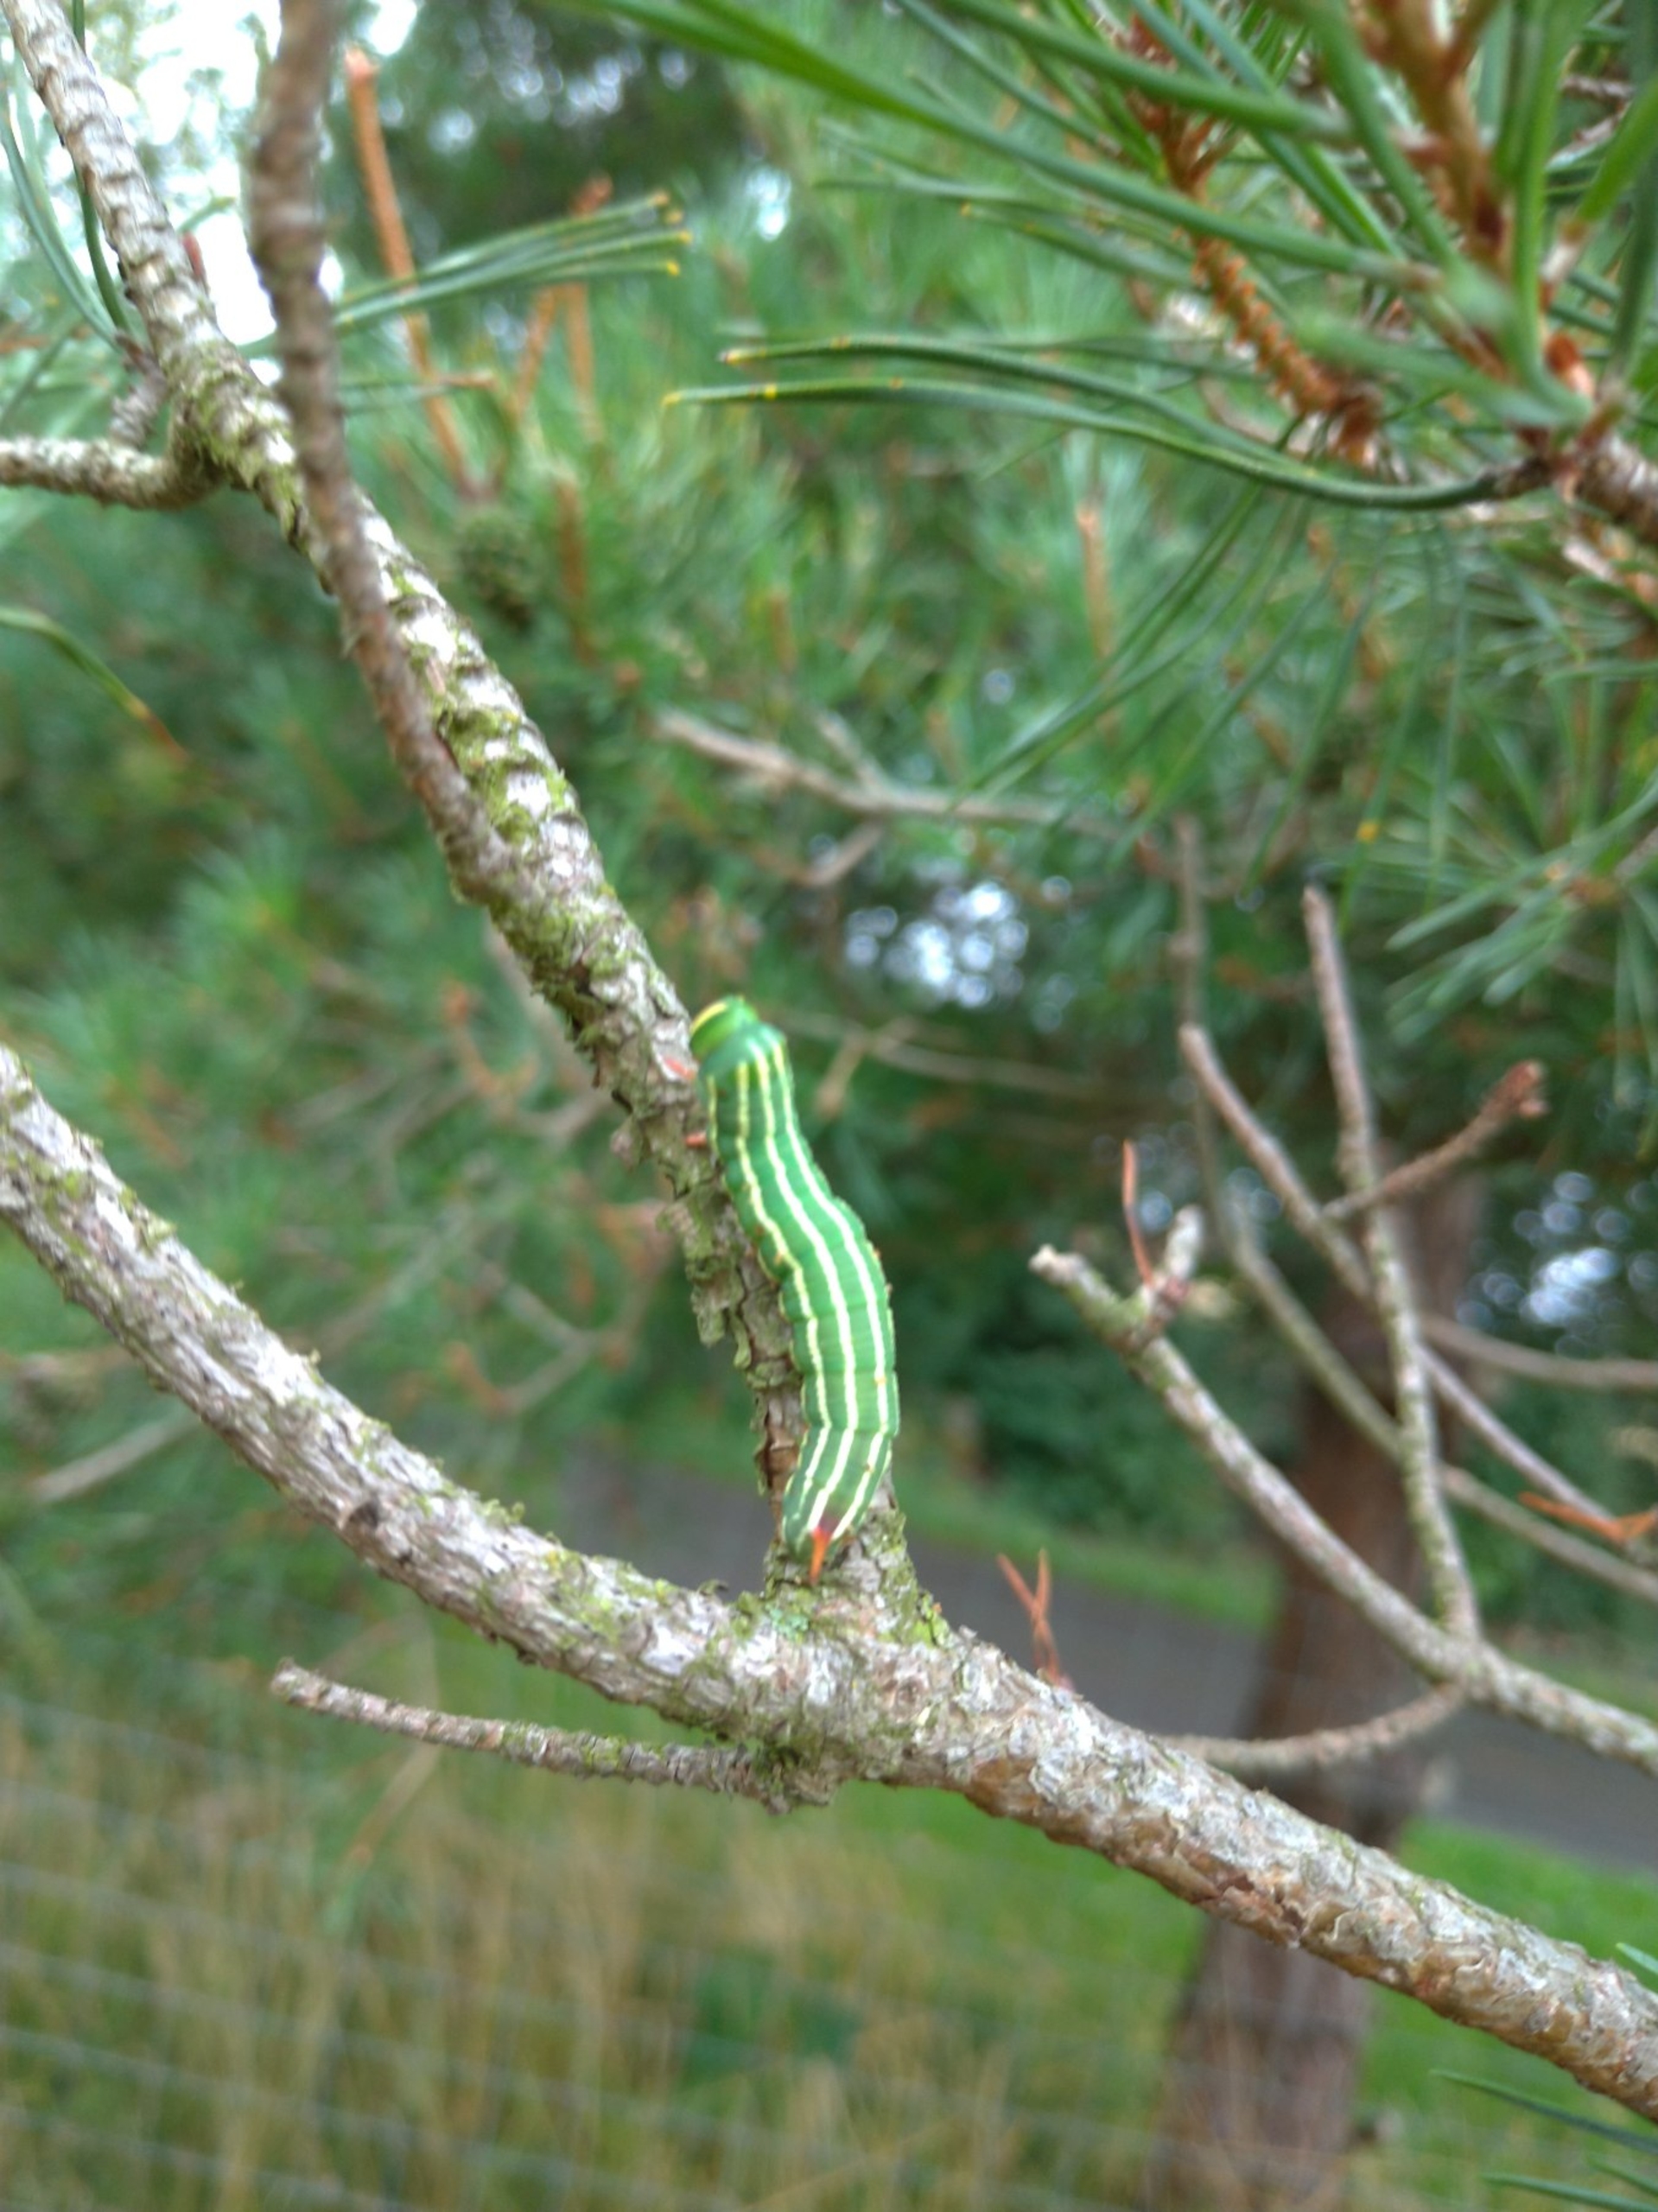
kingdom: Animalia
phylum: Arthropoda
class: Insecta
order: Lepidoptera
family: Sphingidae
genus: Sphinx
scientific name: Sphinx pinastri
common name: Fyrresværmer
